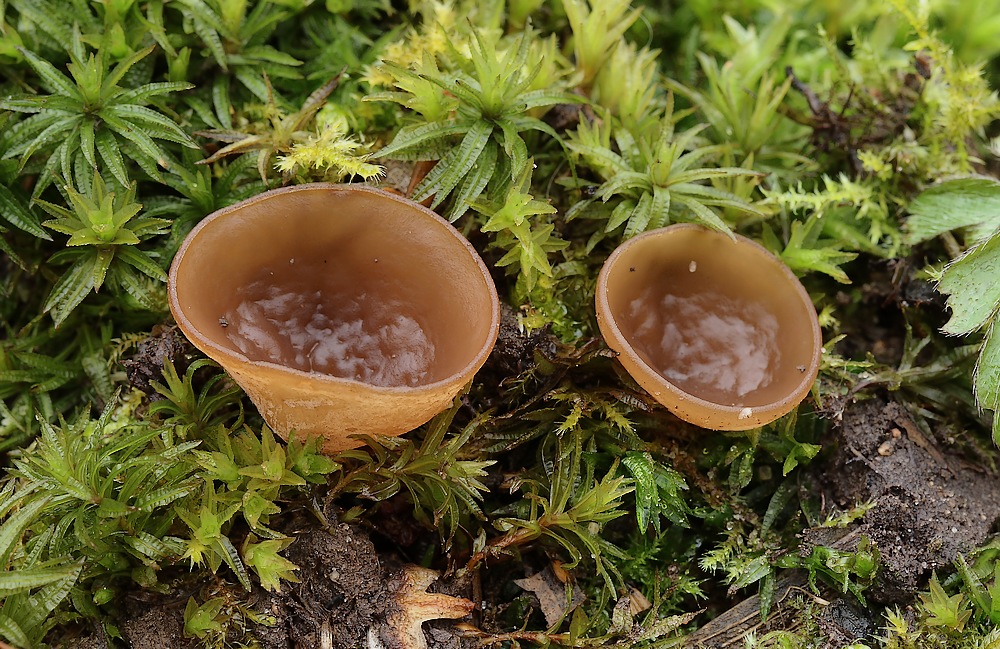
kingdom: Fungi
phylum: Ascomycota
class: Leotiomycetes
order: Helotiales
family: Sclerotiniaceae
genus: Dumontinia
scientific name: Dumontinia tuberosa
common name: anemone-knoldskive
